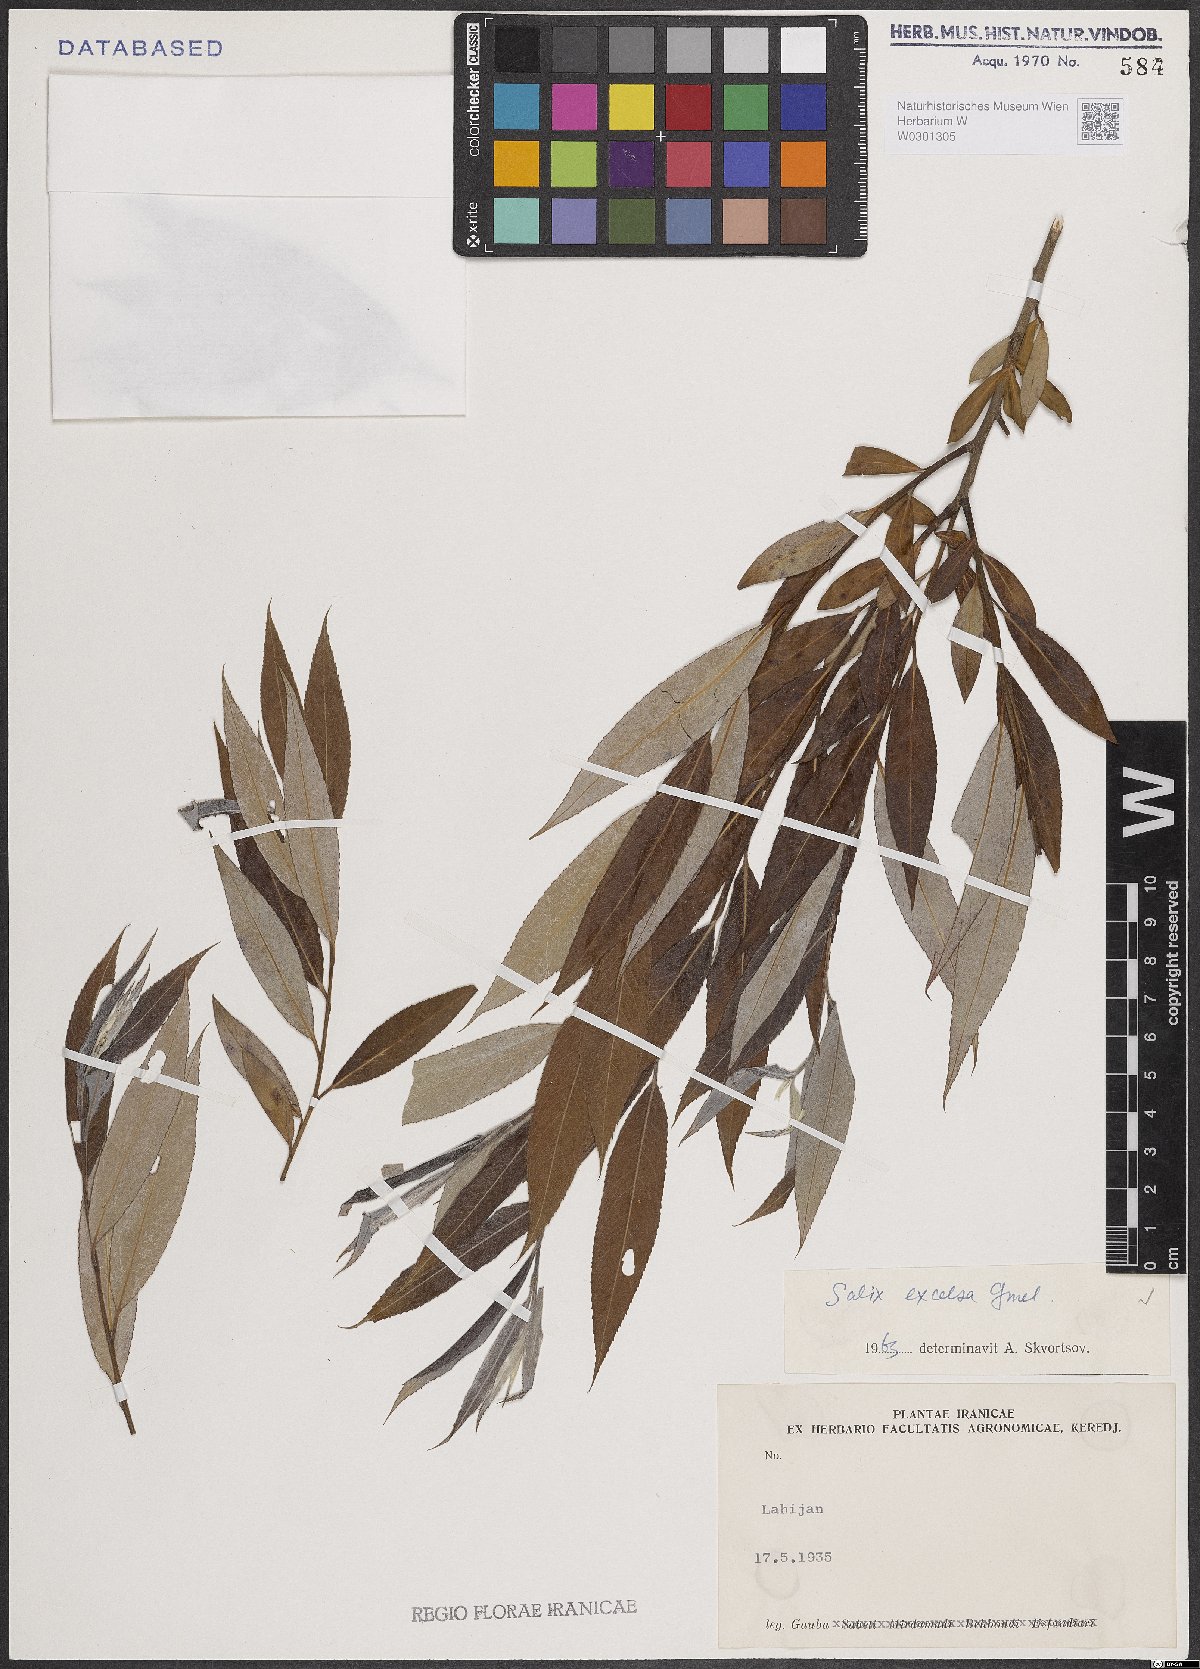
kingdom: Plantae
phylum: Tracheophyta
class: Magnoliopsida
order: Malpighiales
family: Salicaceae
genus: Salix
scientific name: Salix excelsa
